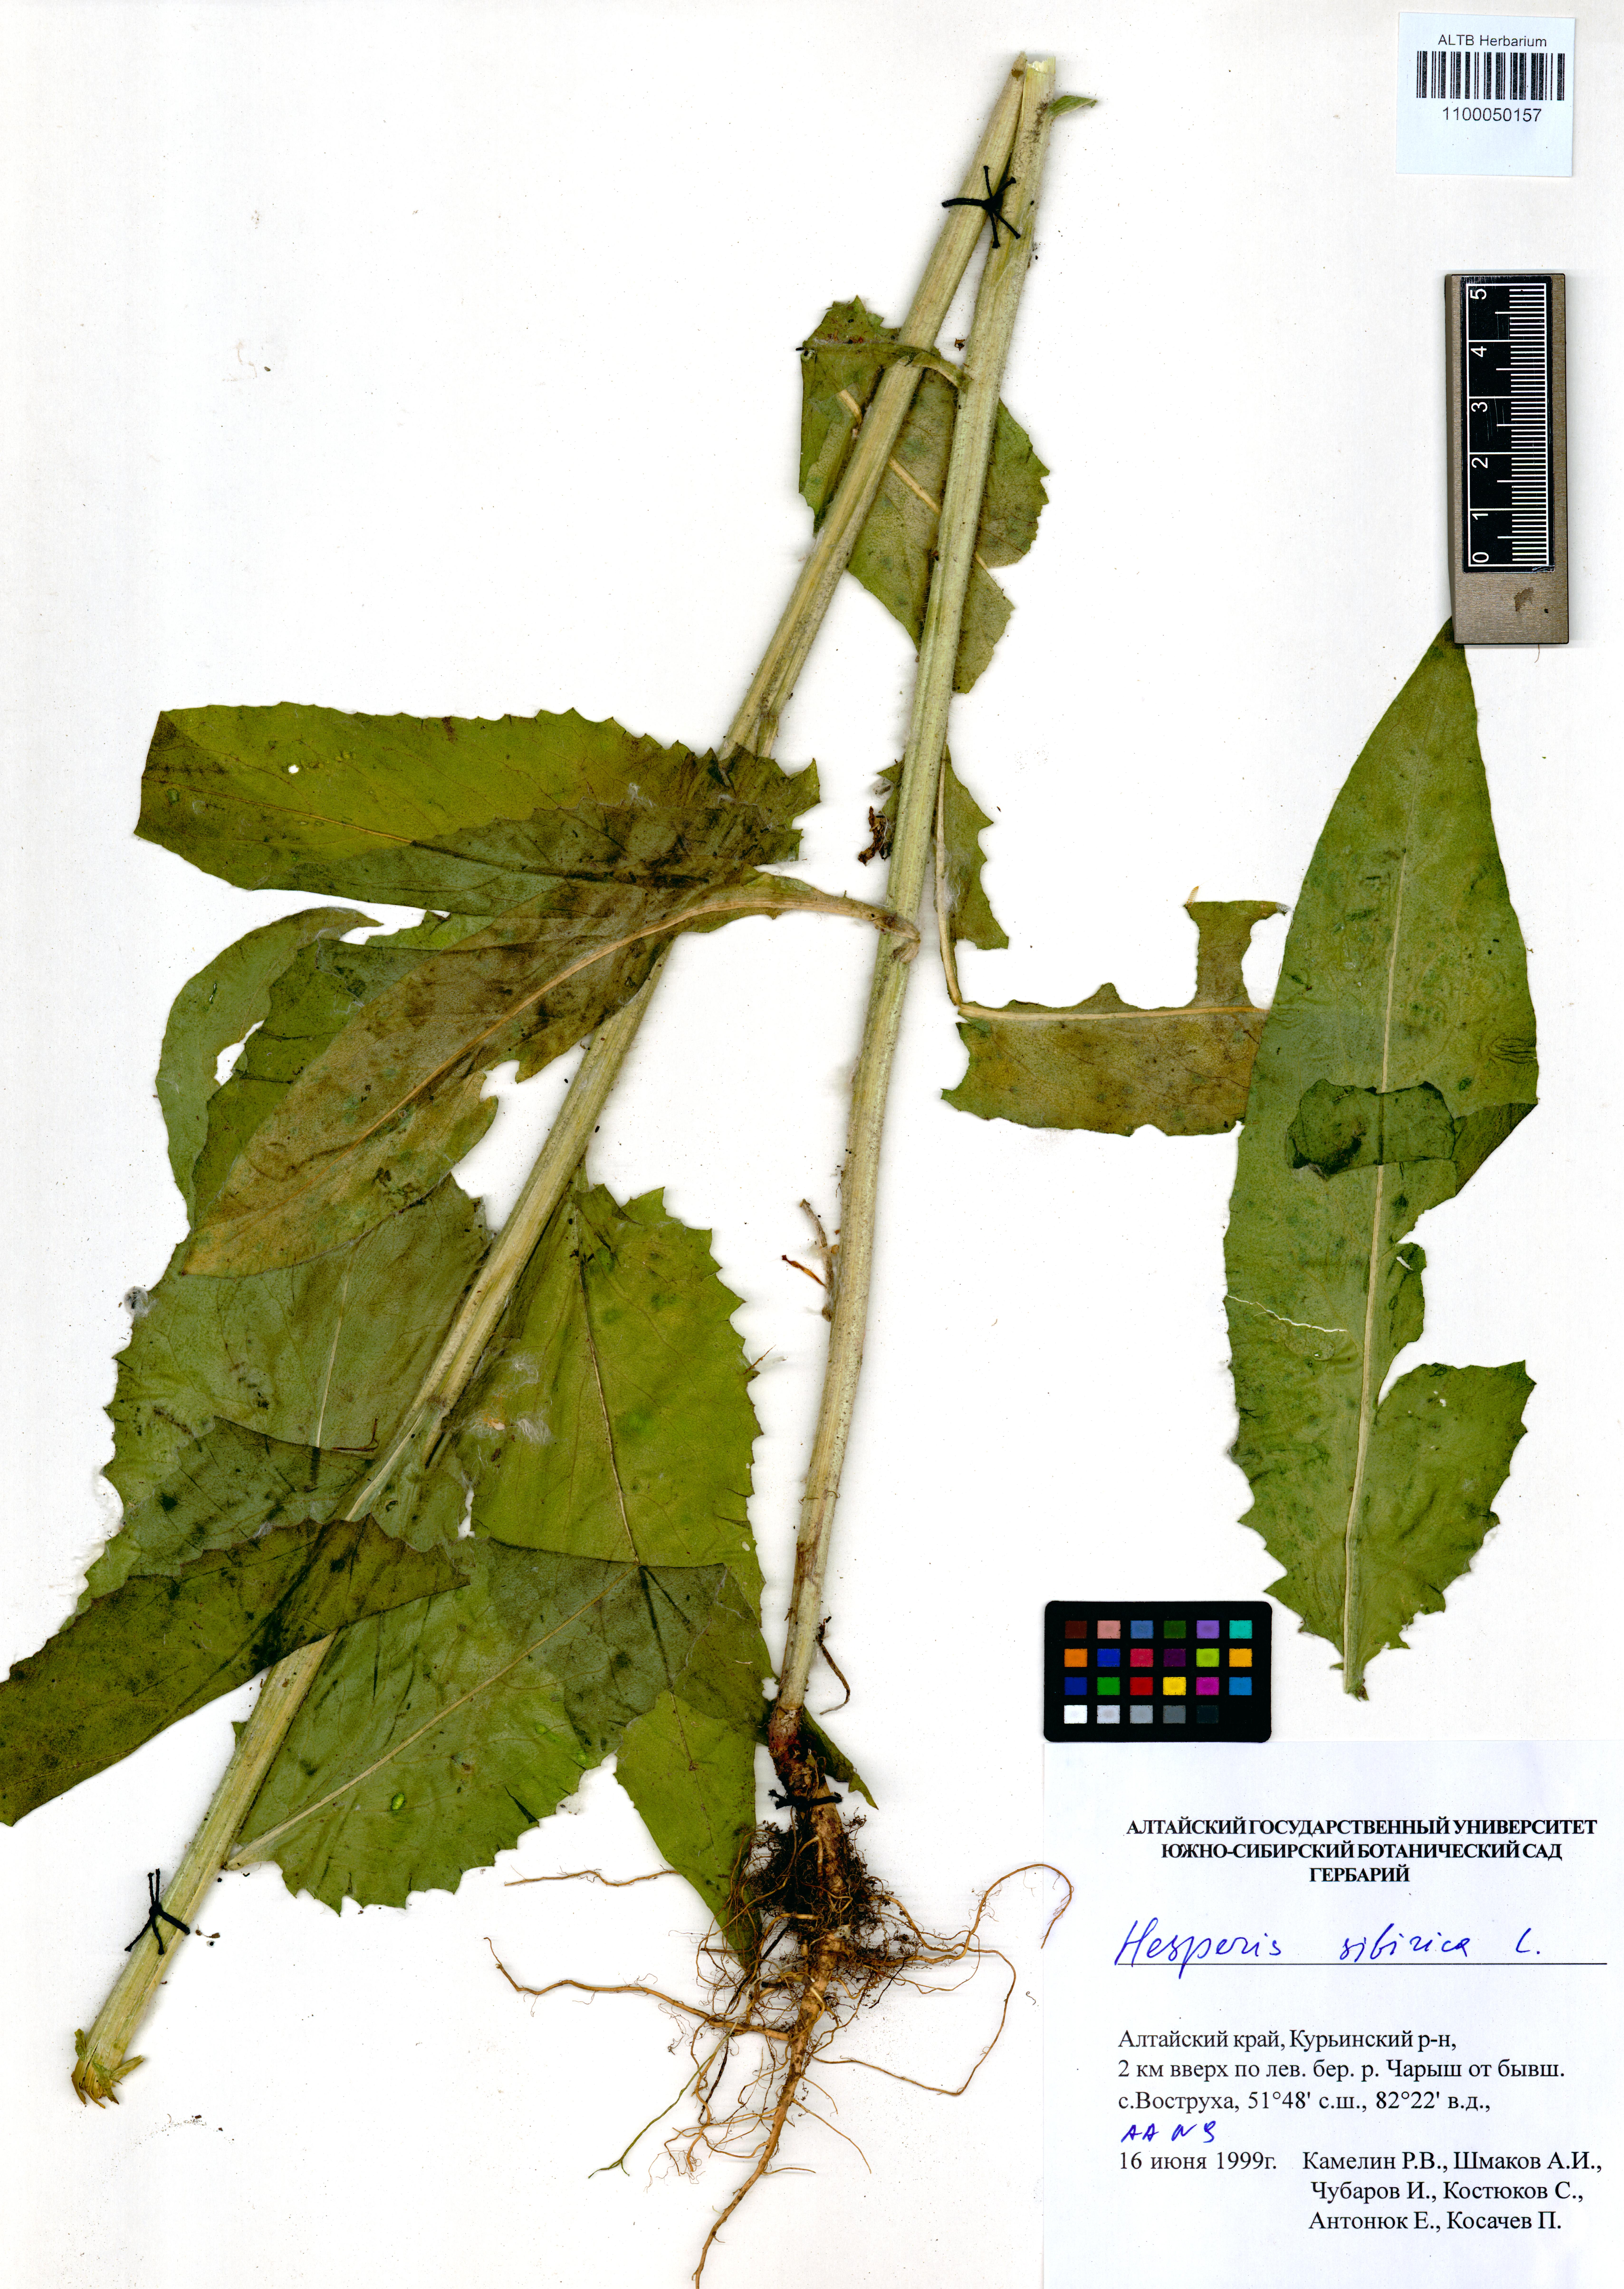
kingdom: Plantae
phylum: Tracheophyta
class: Magnoliopsida
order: Brassicales
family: Brassicaceae
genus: Hesperis
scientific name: Hesperis sibirica
